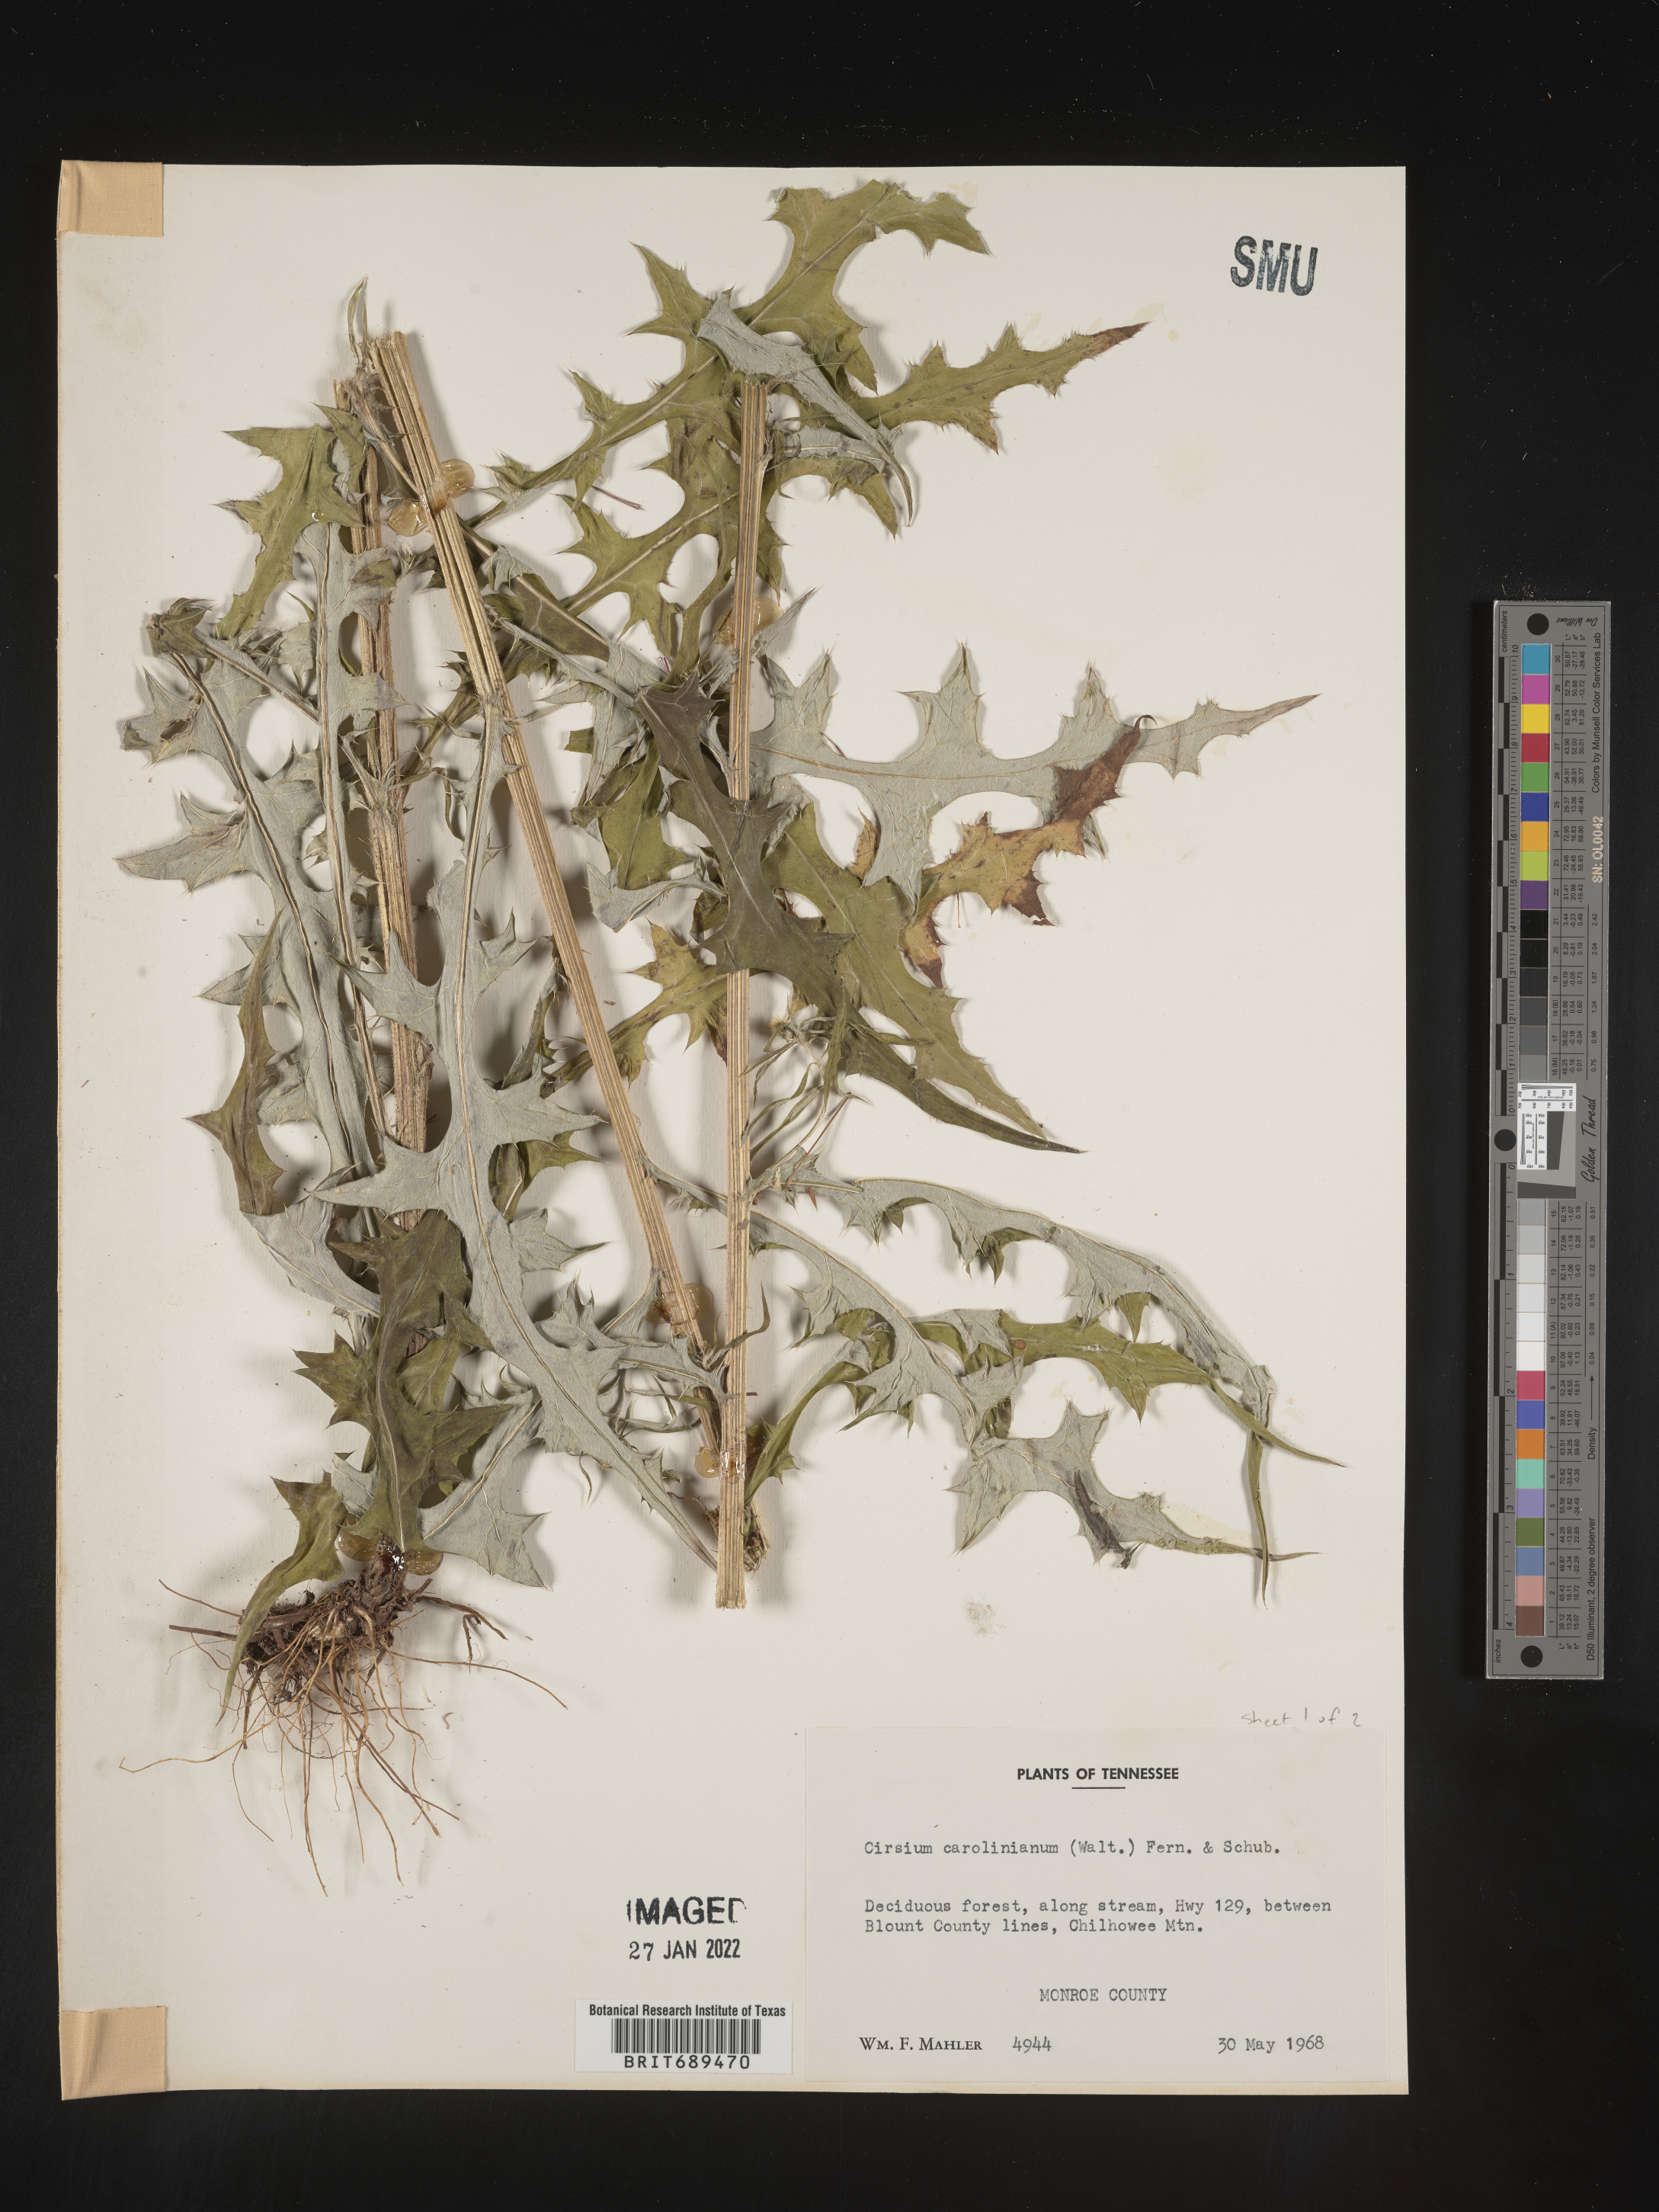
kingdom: Plantae
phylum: Tracheophyta
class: Magnoliopsida
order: Asterales
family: Asteraceae
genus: Cirsium
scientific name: Cirsium carolinianum
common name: Carolina thistle
